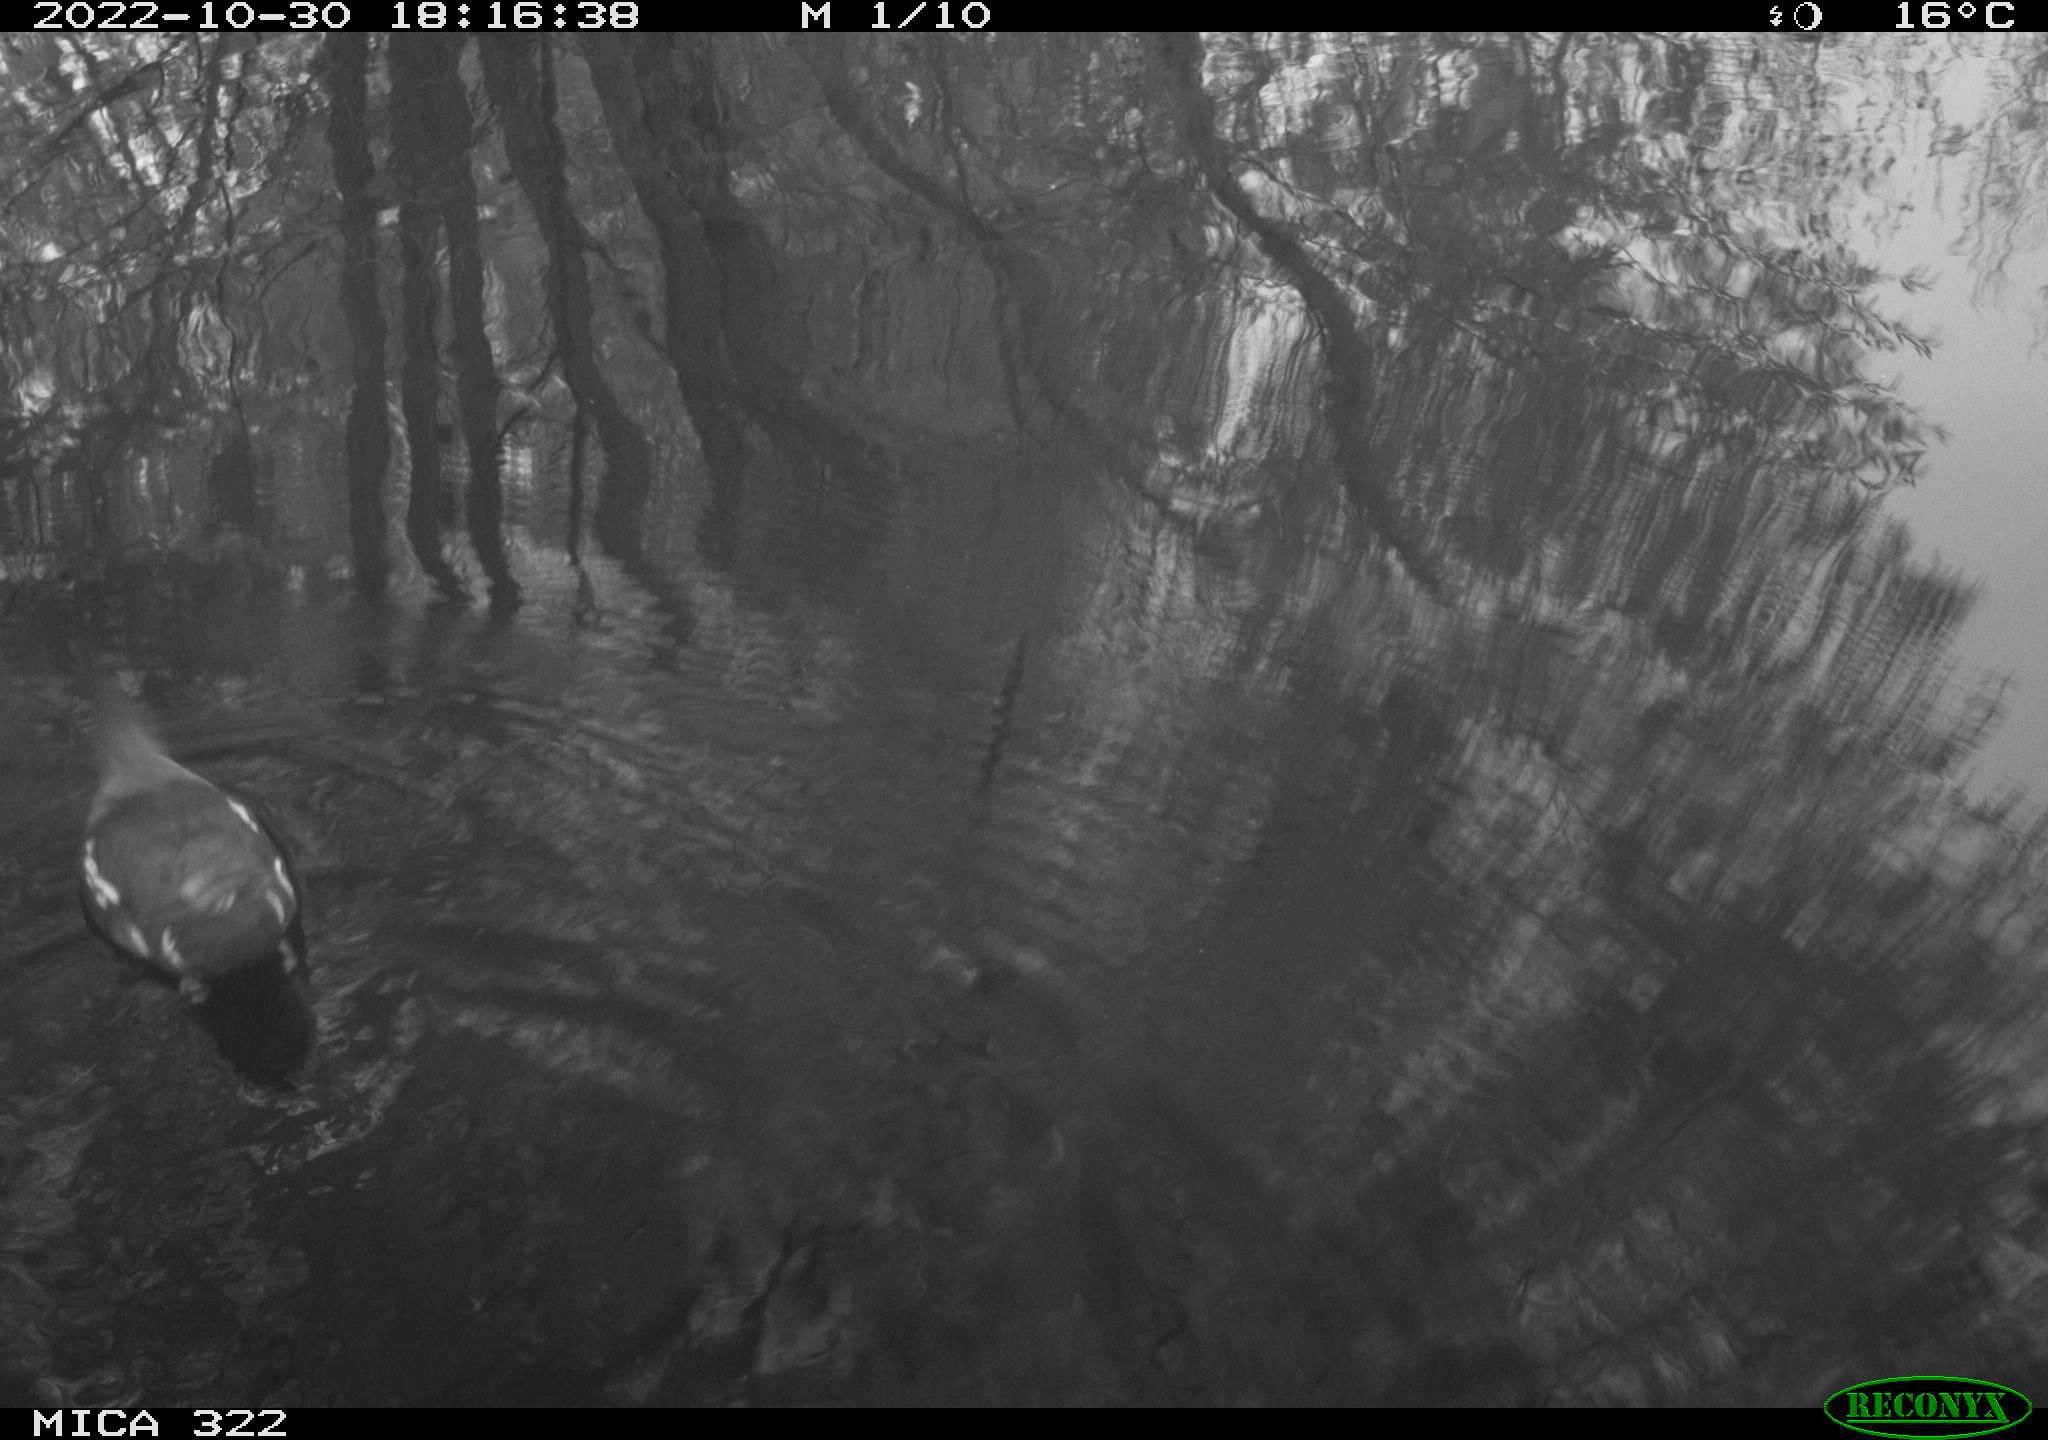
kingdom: Animalia
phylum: Chordata
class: Aves
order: Gruiformes
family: Rallidae
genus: Gallinula
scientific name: Gallinula chloropus
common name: Common moorhen
